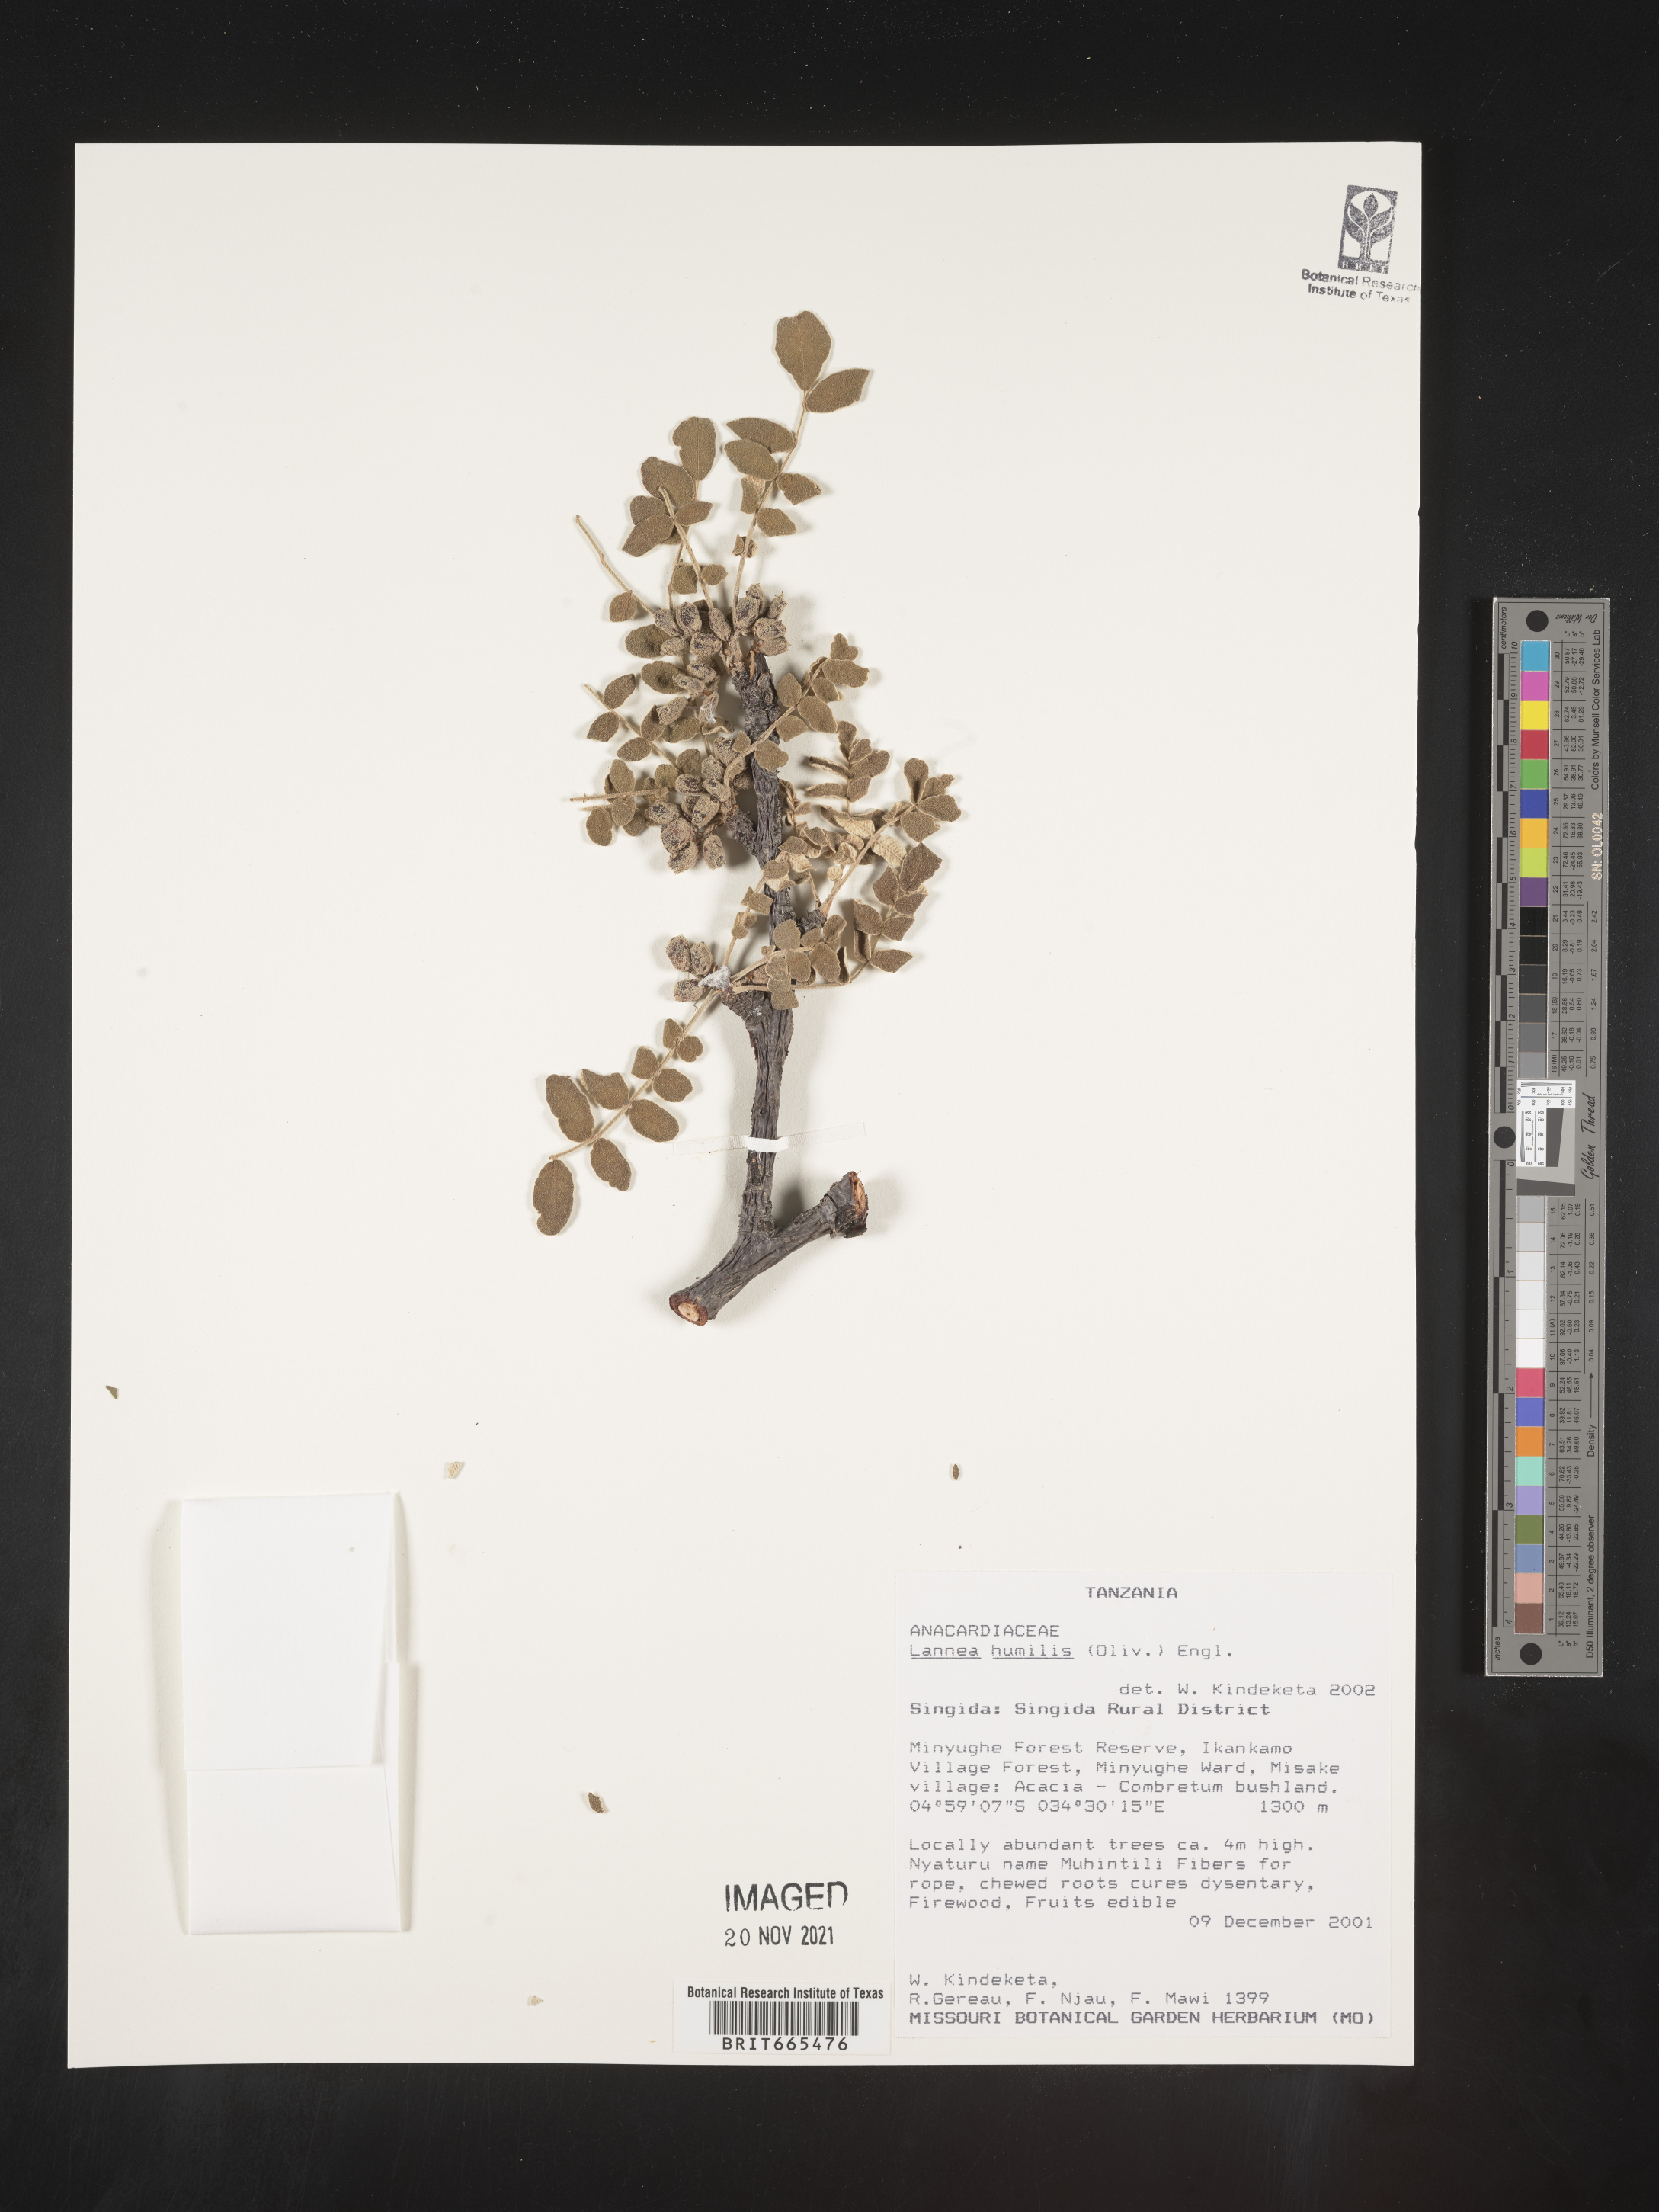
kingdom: Plantae
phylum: Tracheophyta
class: Magnoliopsida
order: Sapindales
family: Anacardiaceae
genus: Lannea
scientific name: Lannea
